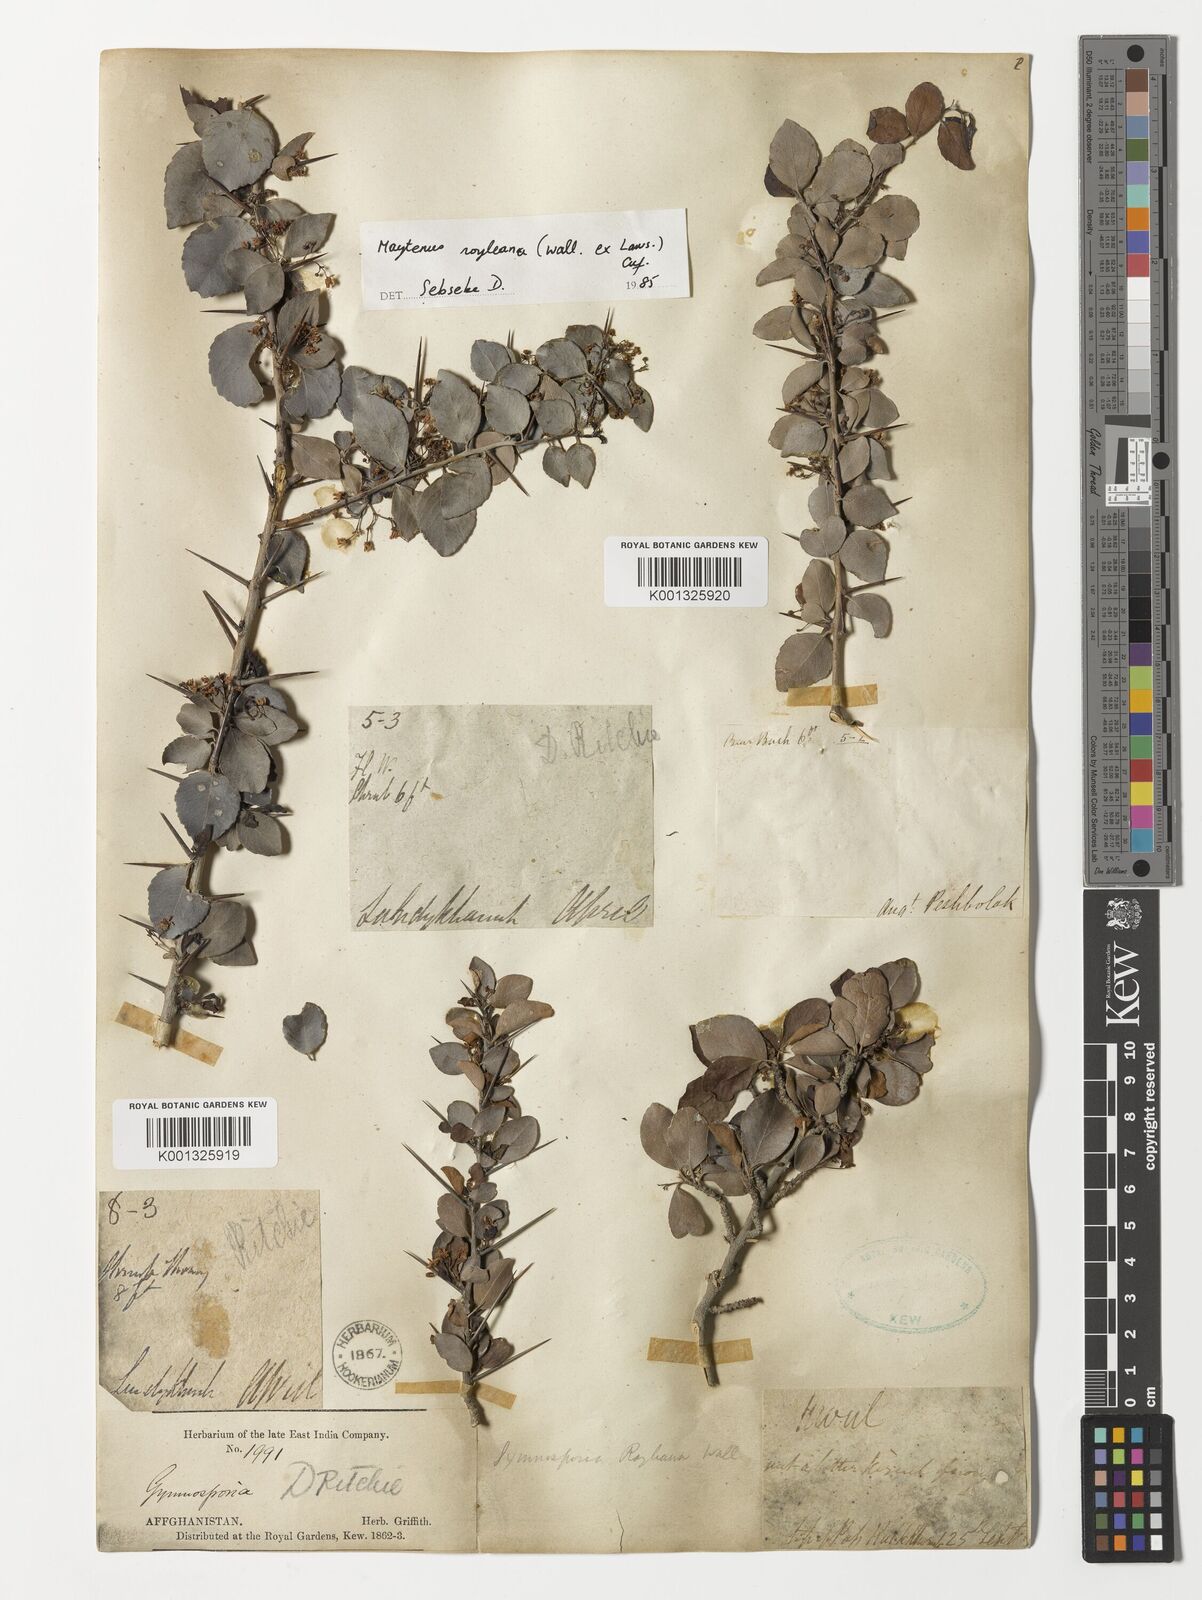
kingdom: Plantae
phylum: Tracheophyta
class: Magnoliopsida
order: Celastrales
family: Celastraceae
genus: Gymnosporia
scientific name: Gymnosporia royleana
